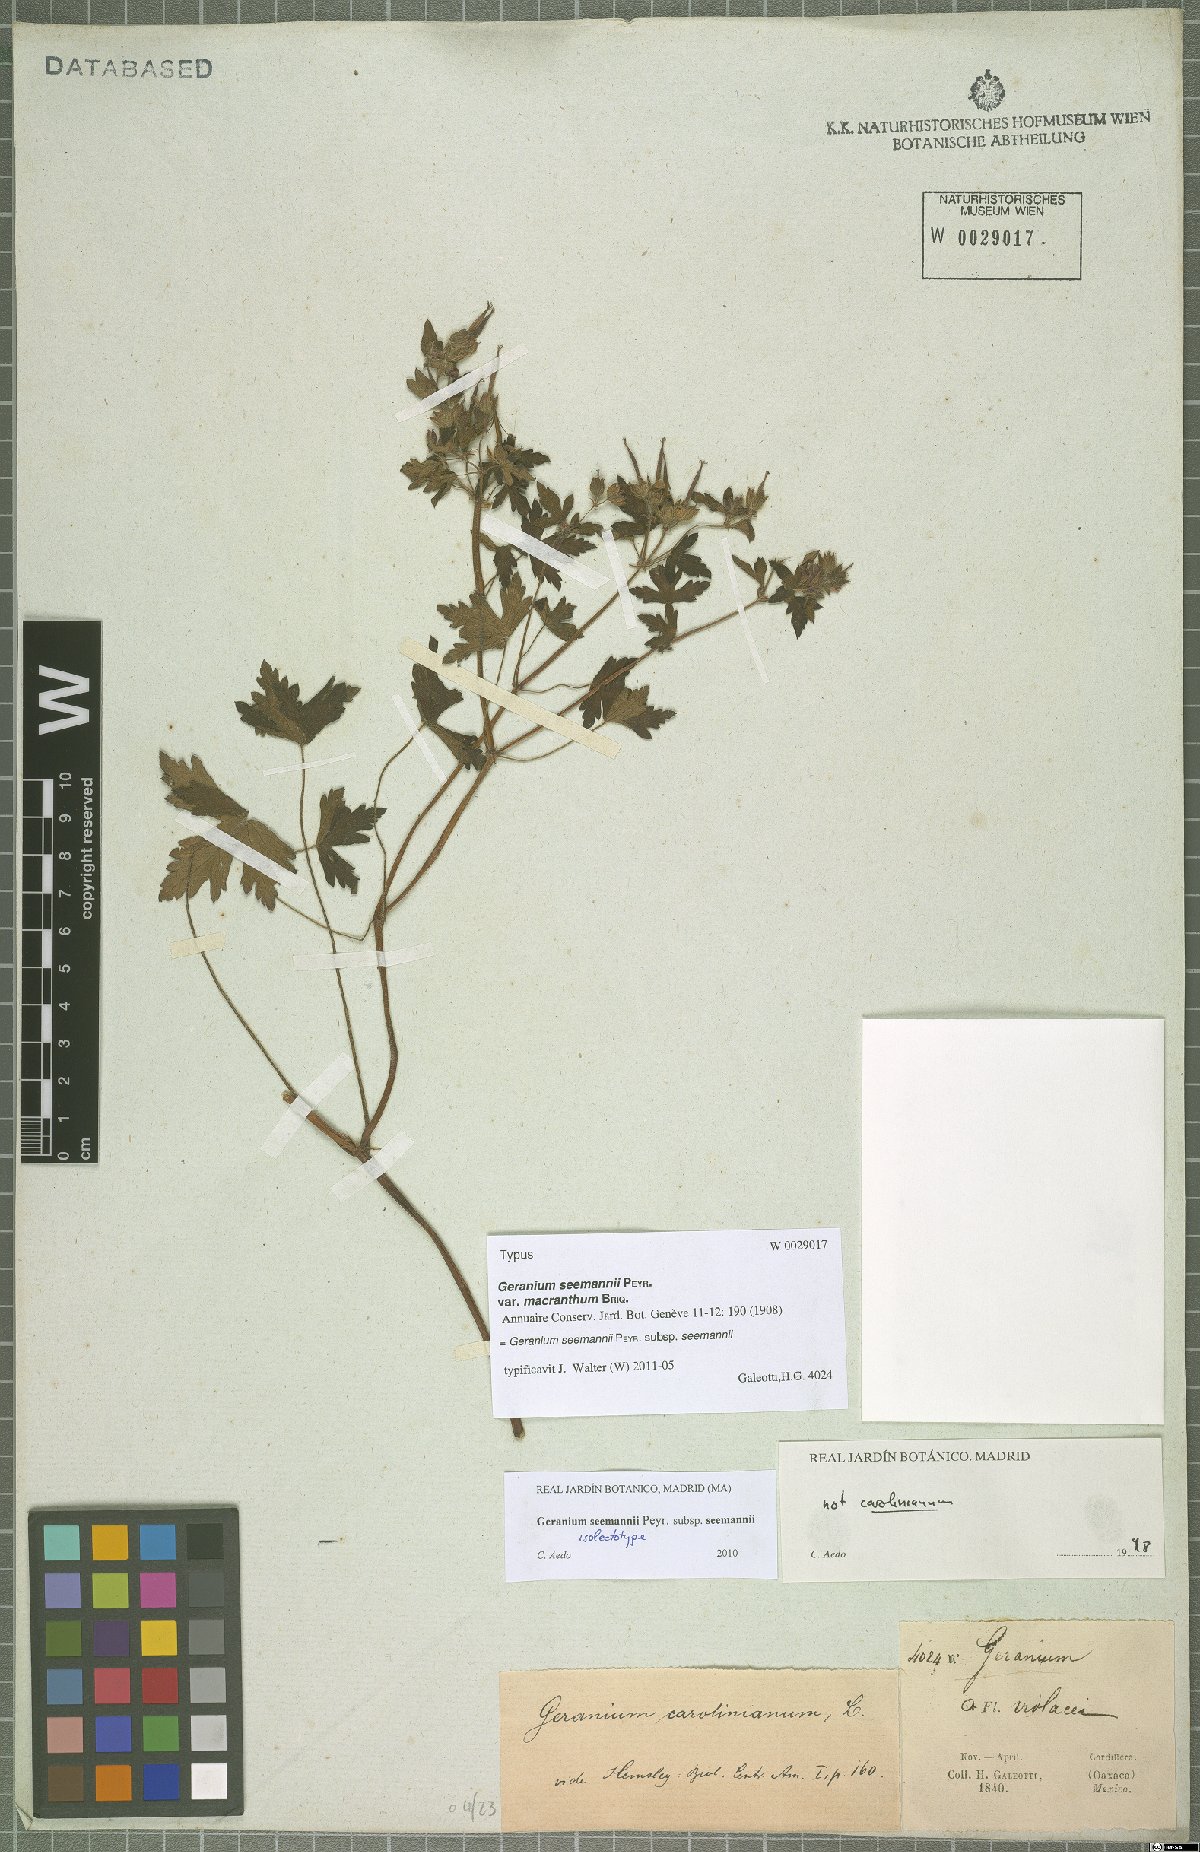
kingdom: Plantae
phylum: Tracheophyta
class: Magnoliopsida
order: Geraniales
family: Geraniaceae
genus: Geranium
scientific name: Geranium seemannii
